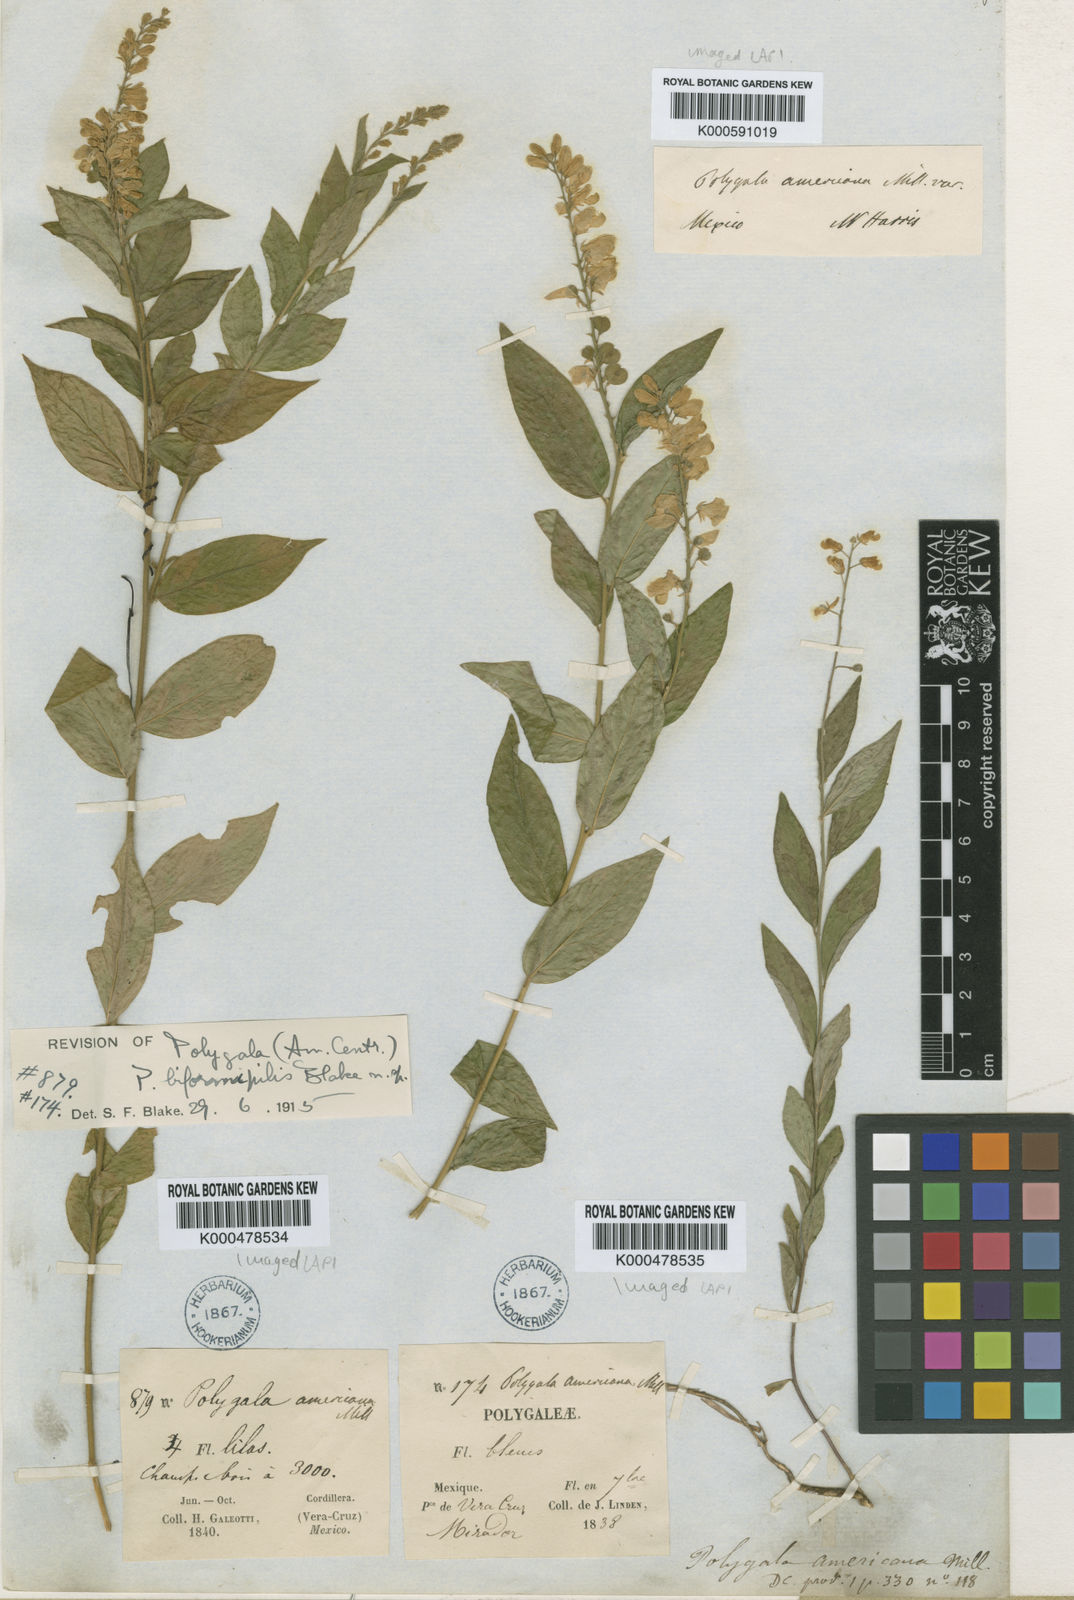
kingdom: Plantae
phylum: Tracheophyta
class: Magnoliopsida
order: Fabales
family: Polygalaceae
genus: Polygala
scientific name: Polygala biformipilis
